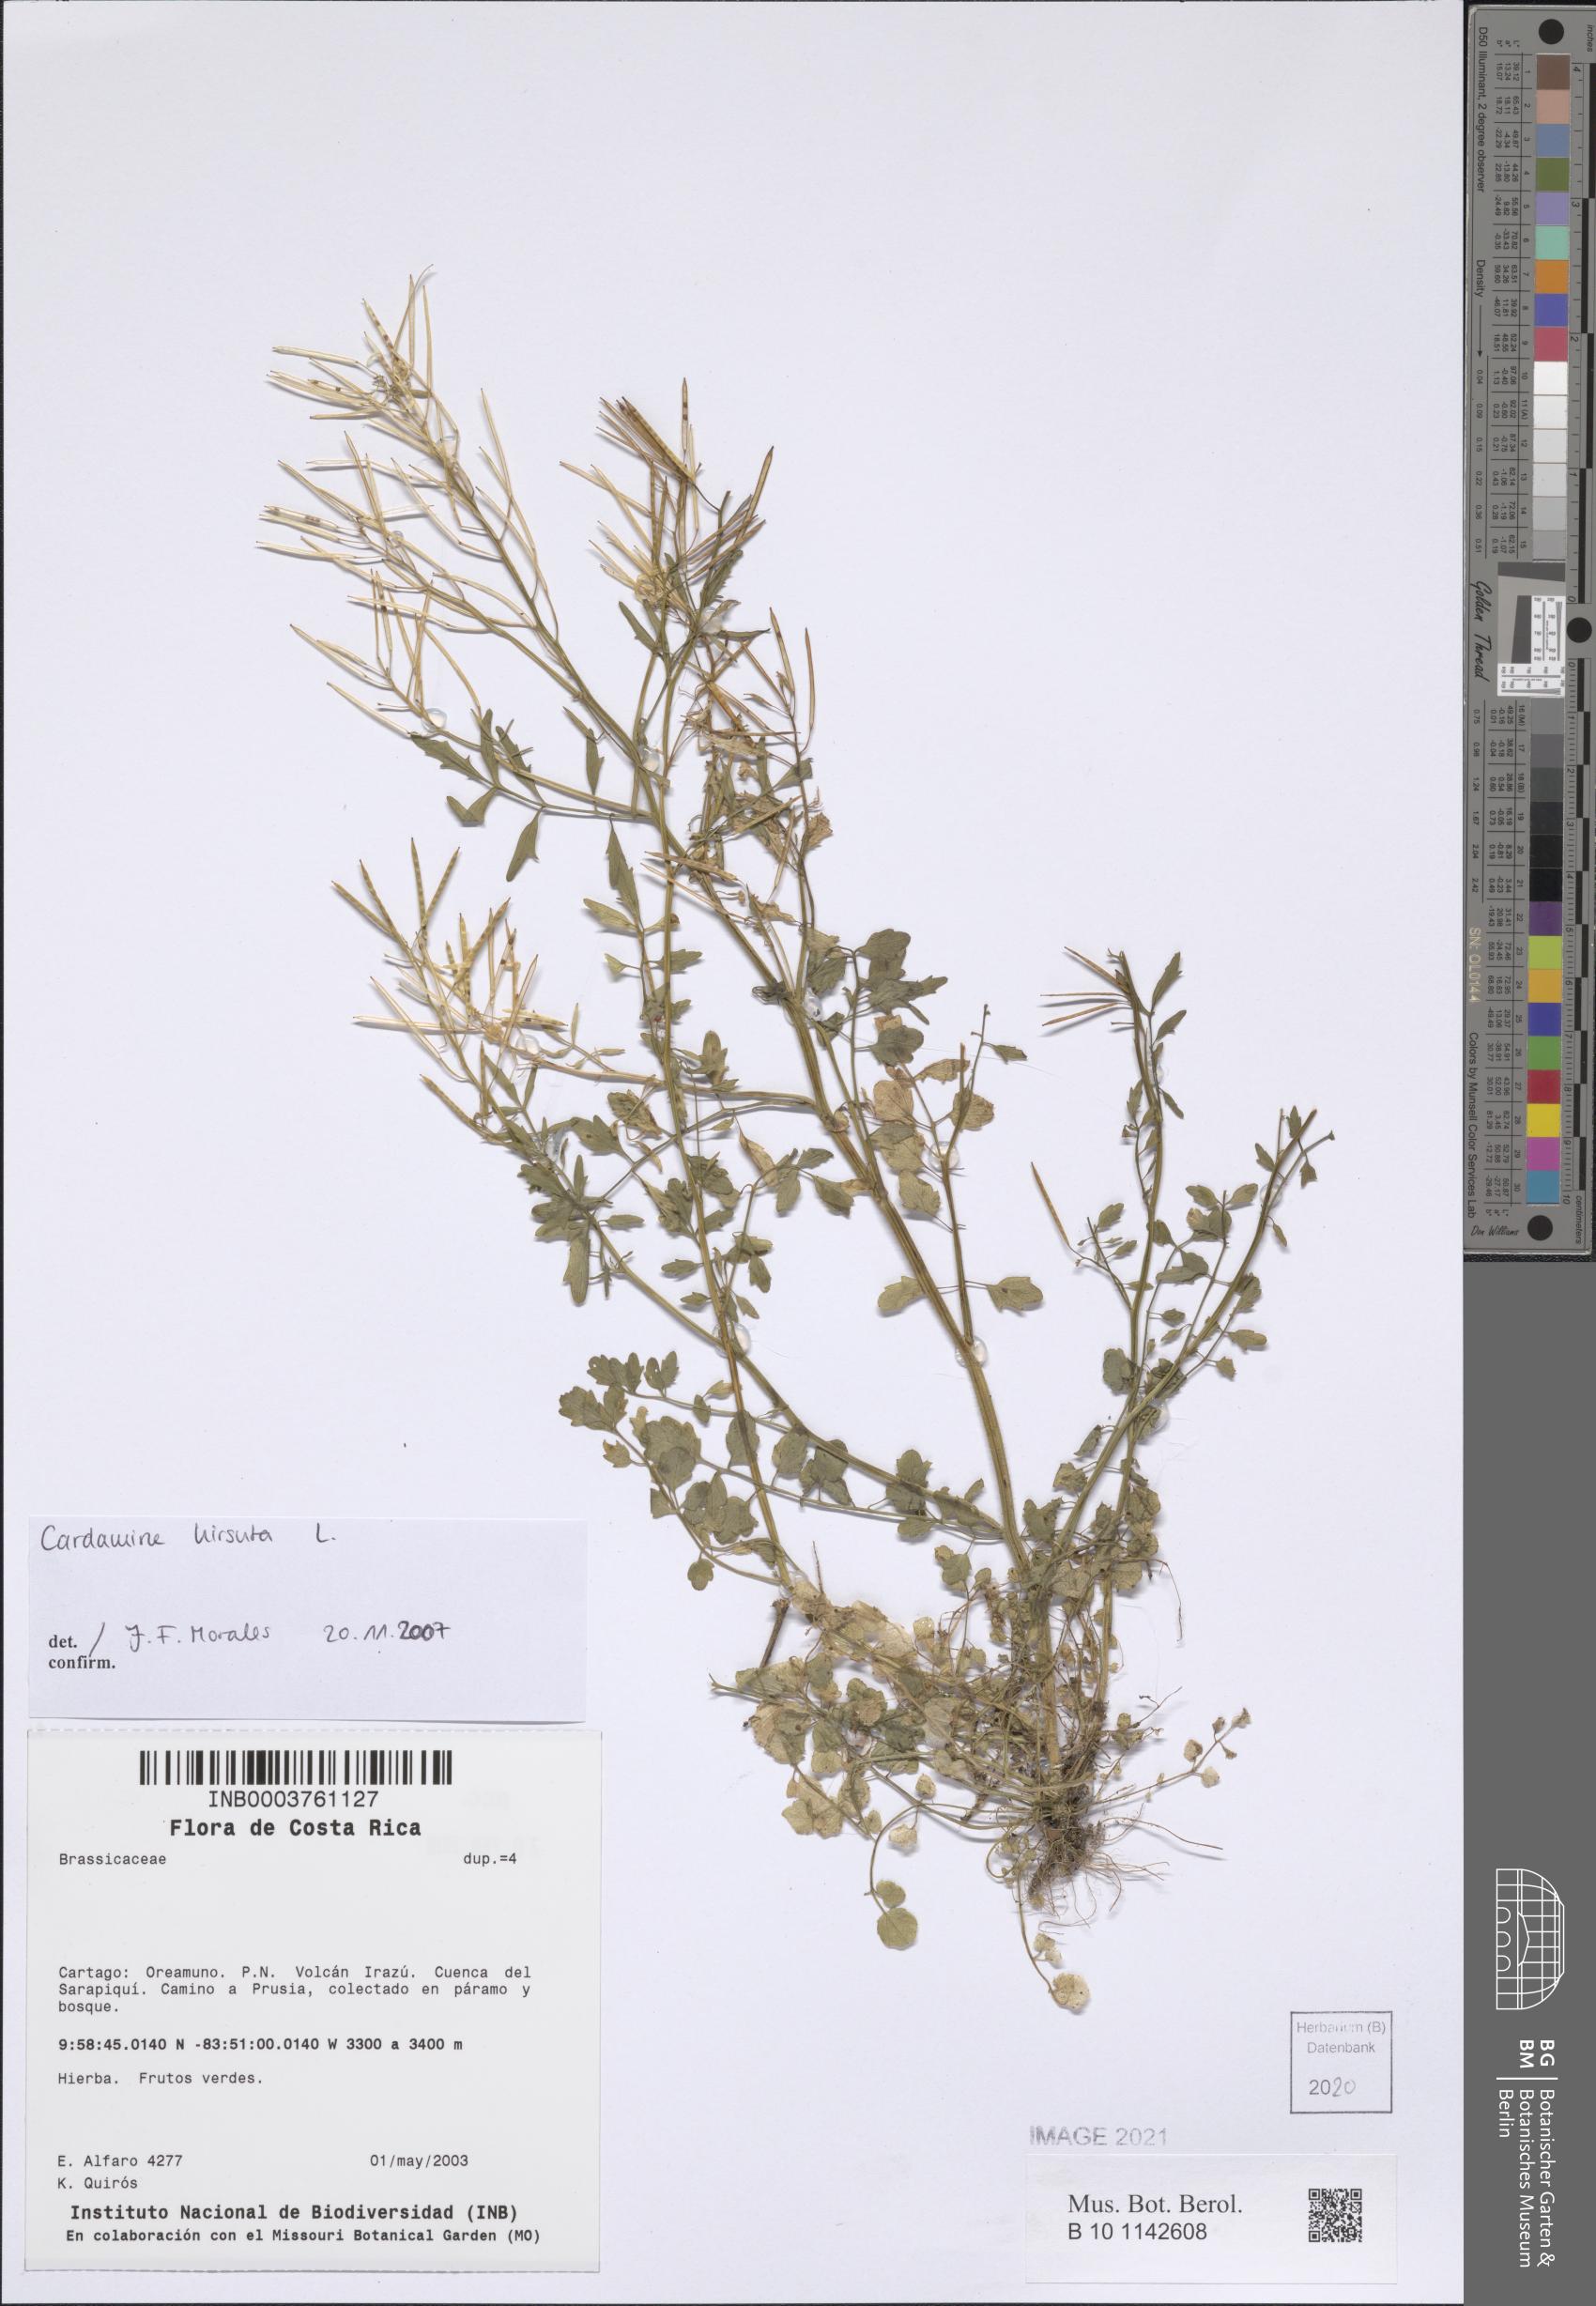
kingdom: Plantae
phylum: Tracheophyta
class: Magnoliopsida
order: Brassicales
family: Brassicaceae
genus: Cardamine
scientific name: Cardamine hirsuta
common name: Hairy bittercress
